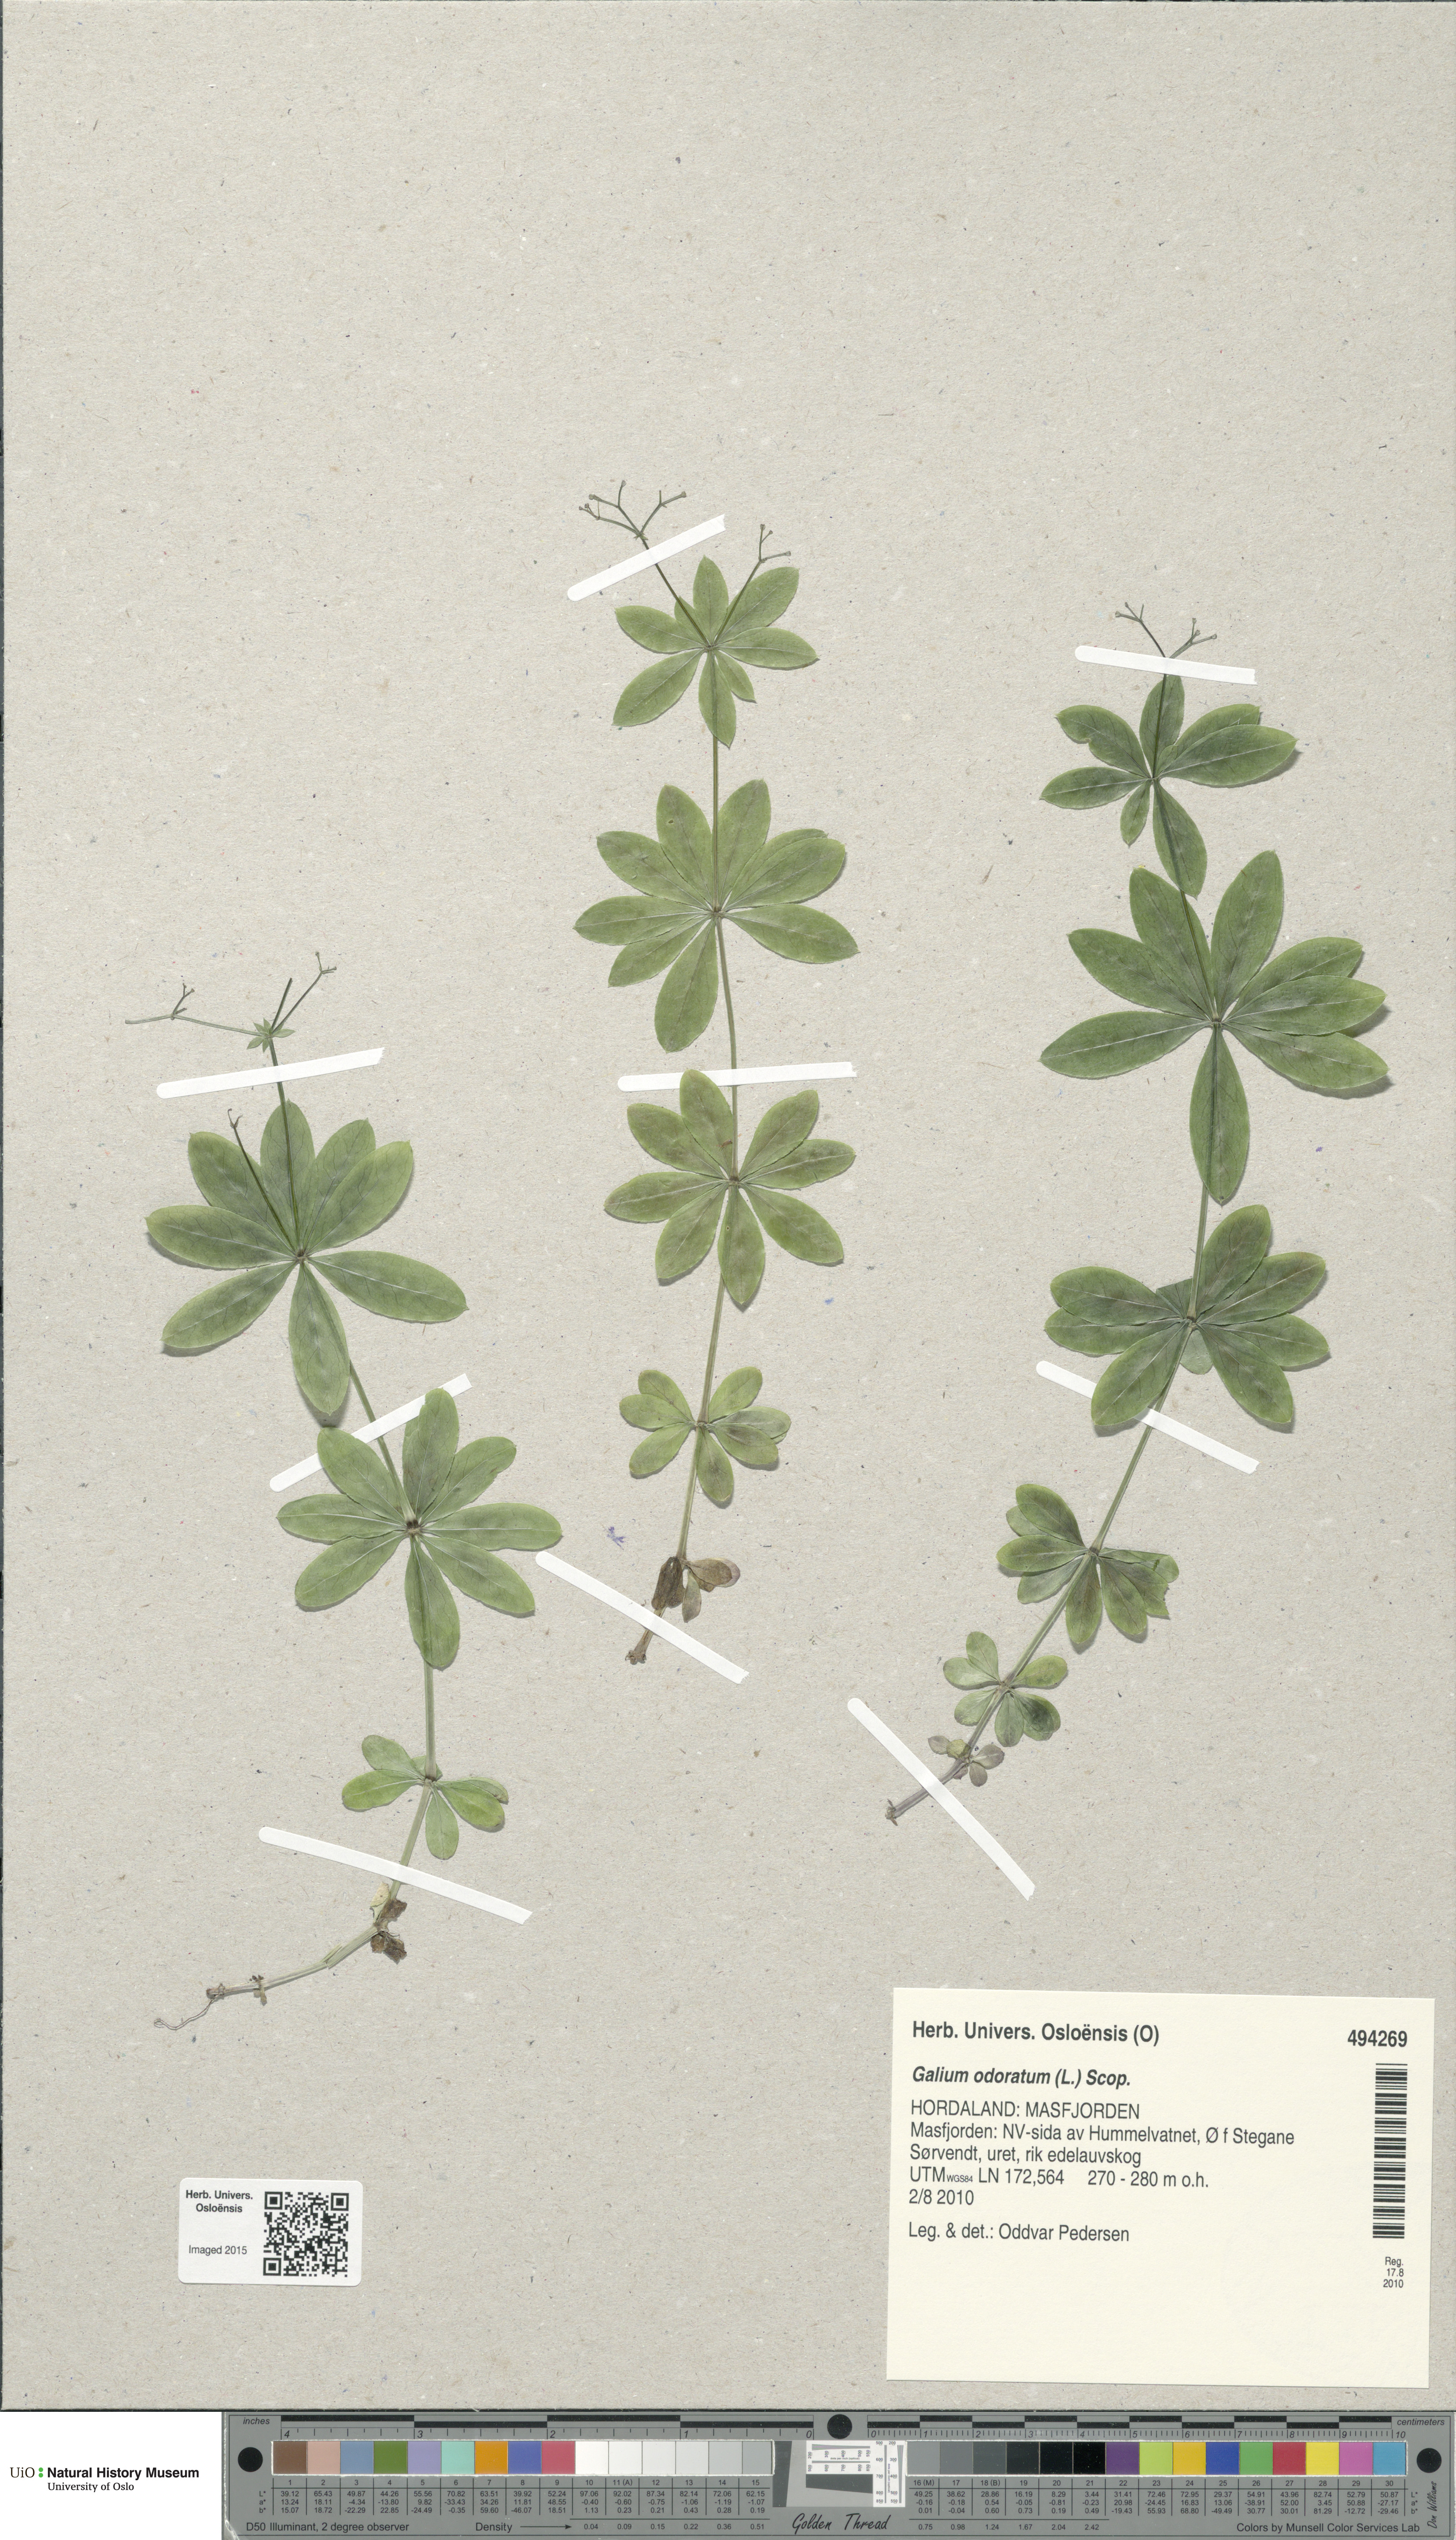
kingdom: Plantae
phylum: Tracheophyta
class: Magnoliopsida
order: Gentianales
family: Rubiaceae
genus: Galium
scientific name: Galium odoratum
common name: Sweet woodruff
